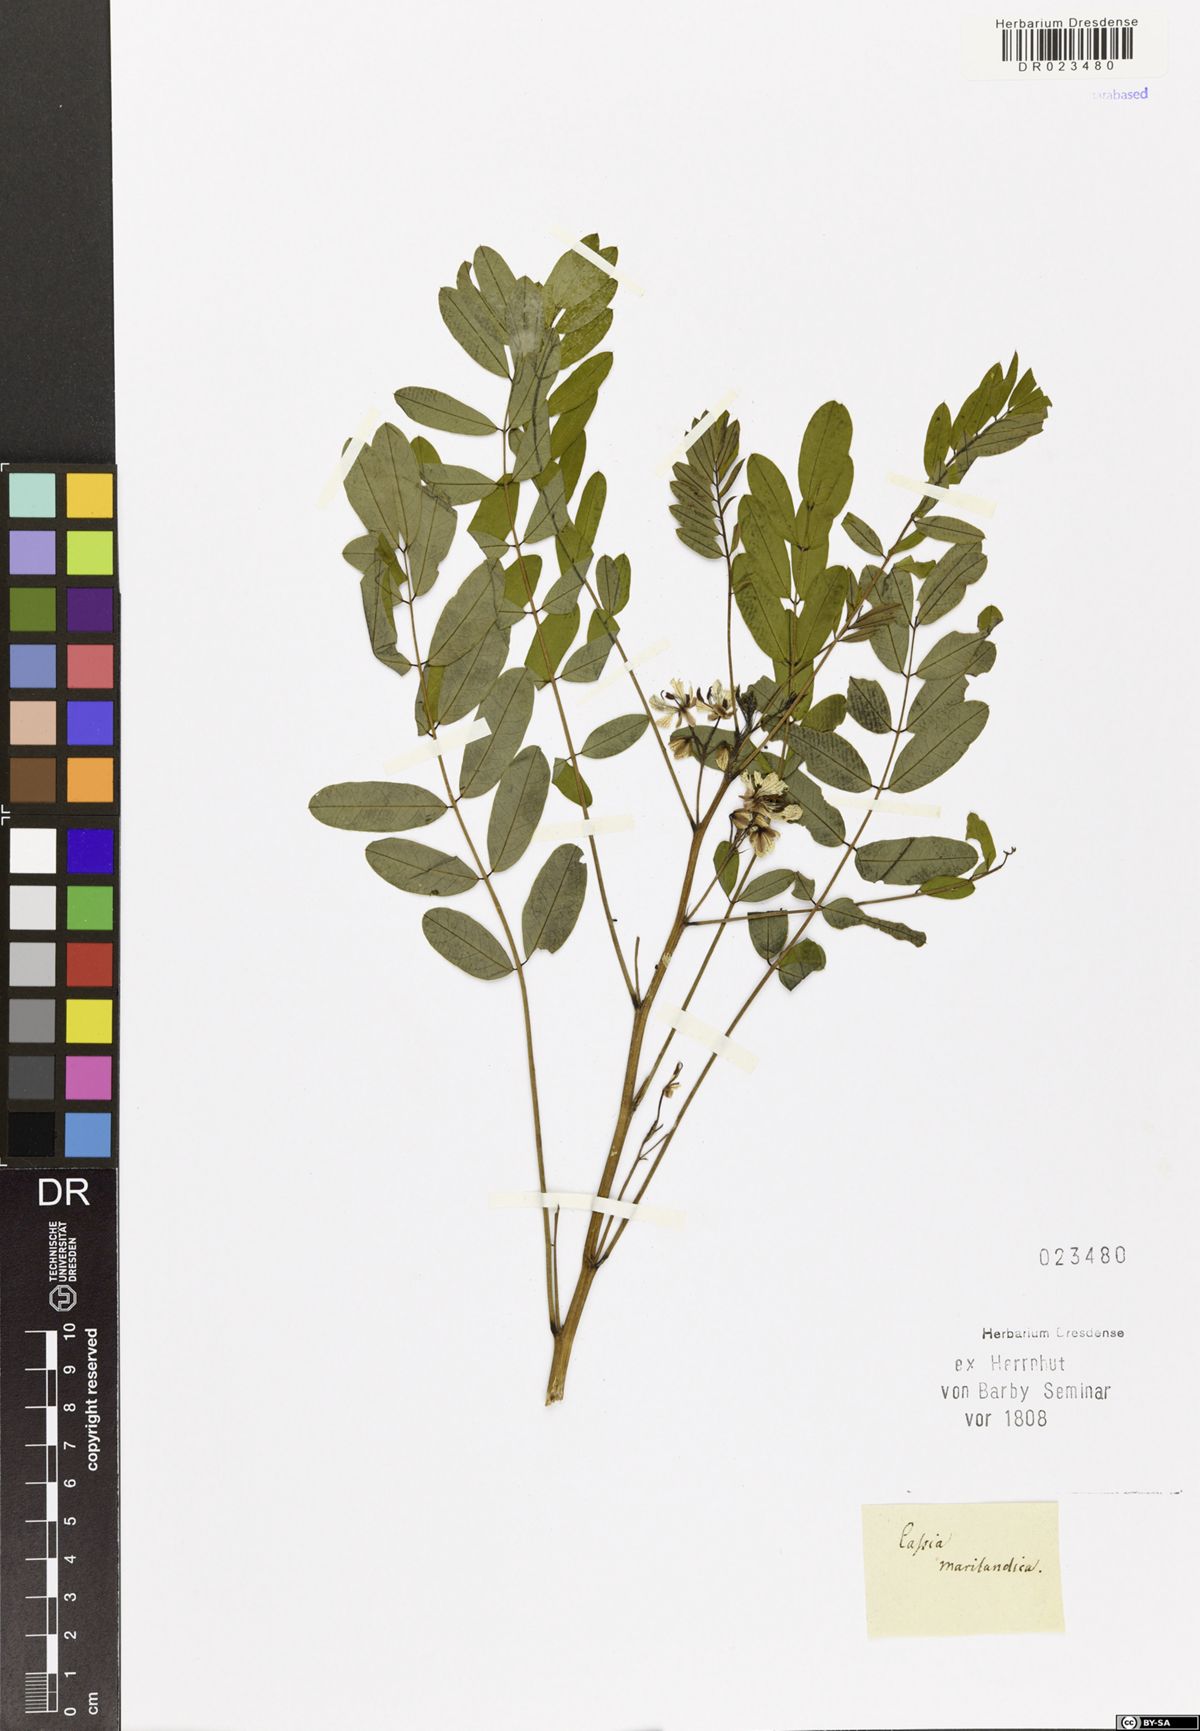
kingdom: Plantae
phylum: Tracheophyta
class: Magnoliopsida
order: Fabales
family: Fabaceae
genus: Senna
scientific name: Senna marilandica
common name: American senna
